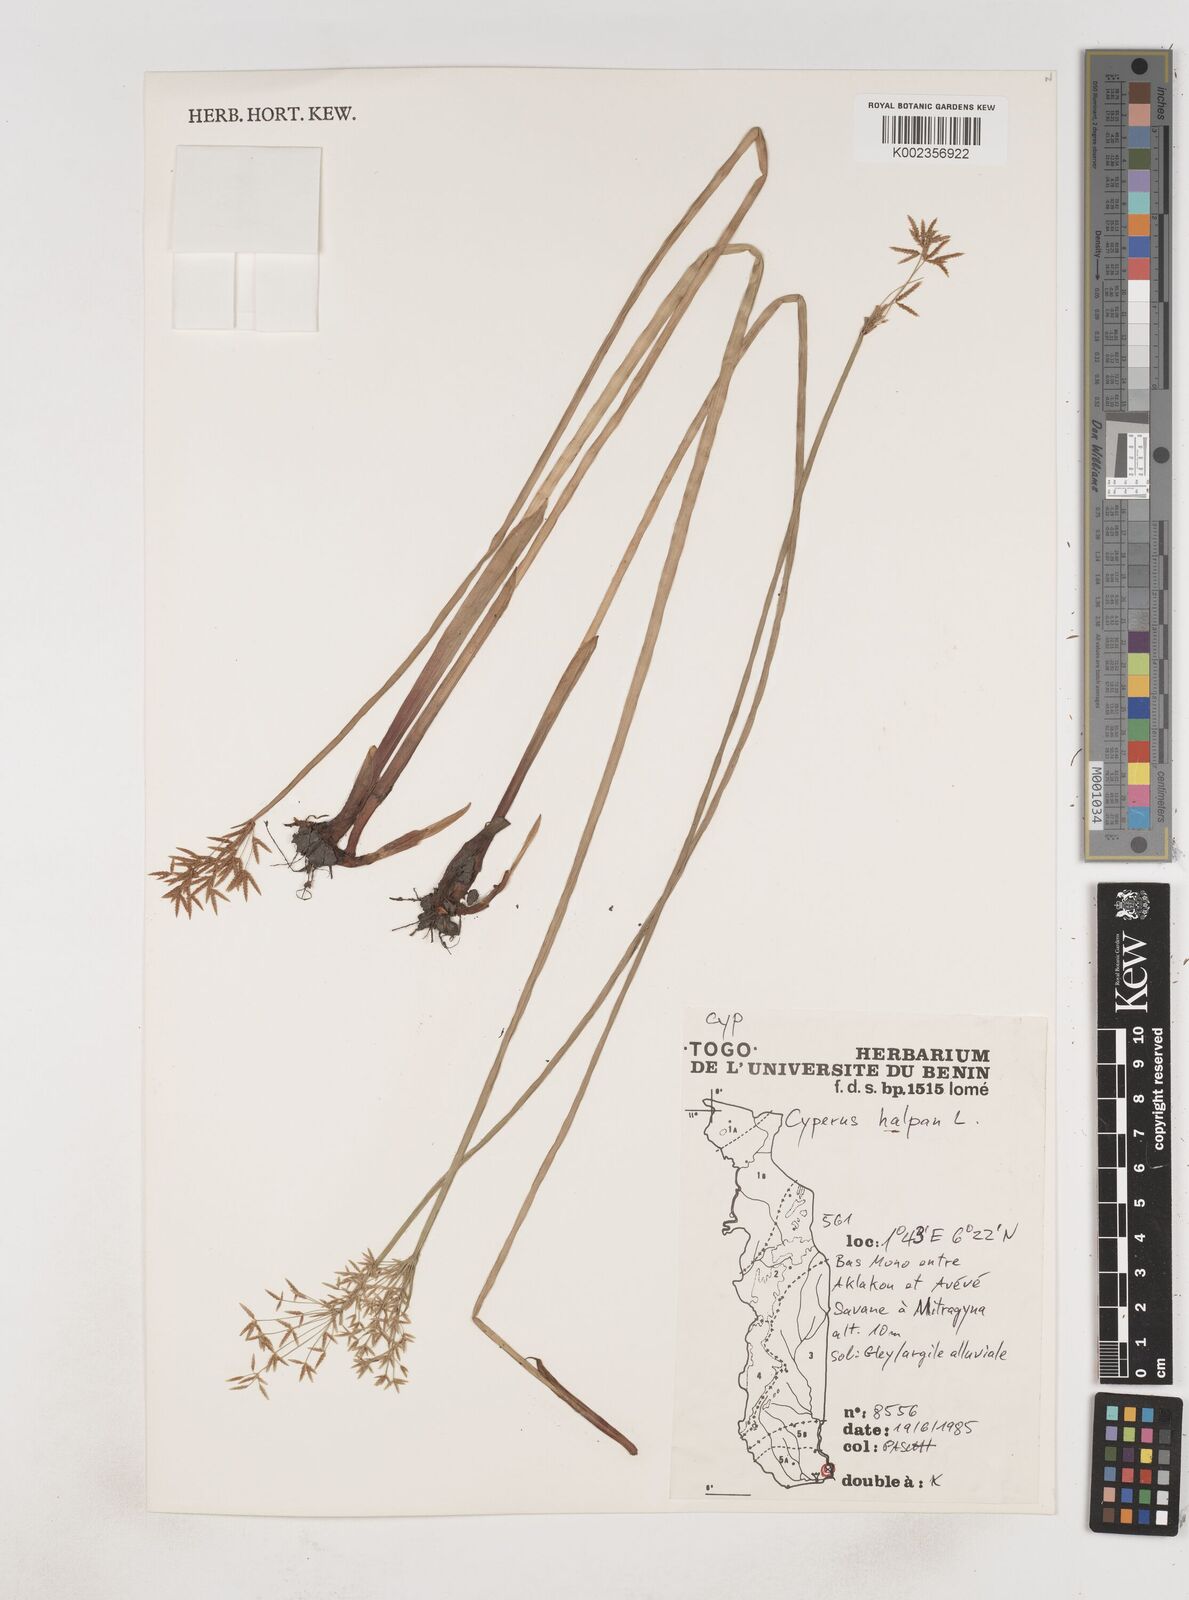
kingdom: Plantae
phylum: Tracheophyta
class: Liliopsida
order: Poales
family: Cyperaceae
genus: Cyperus
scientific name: Cyperus haspan
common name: Haspan flatsedge
